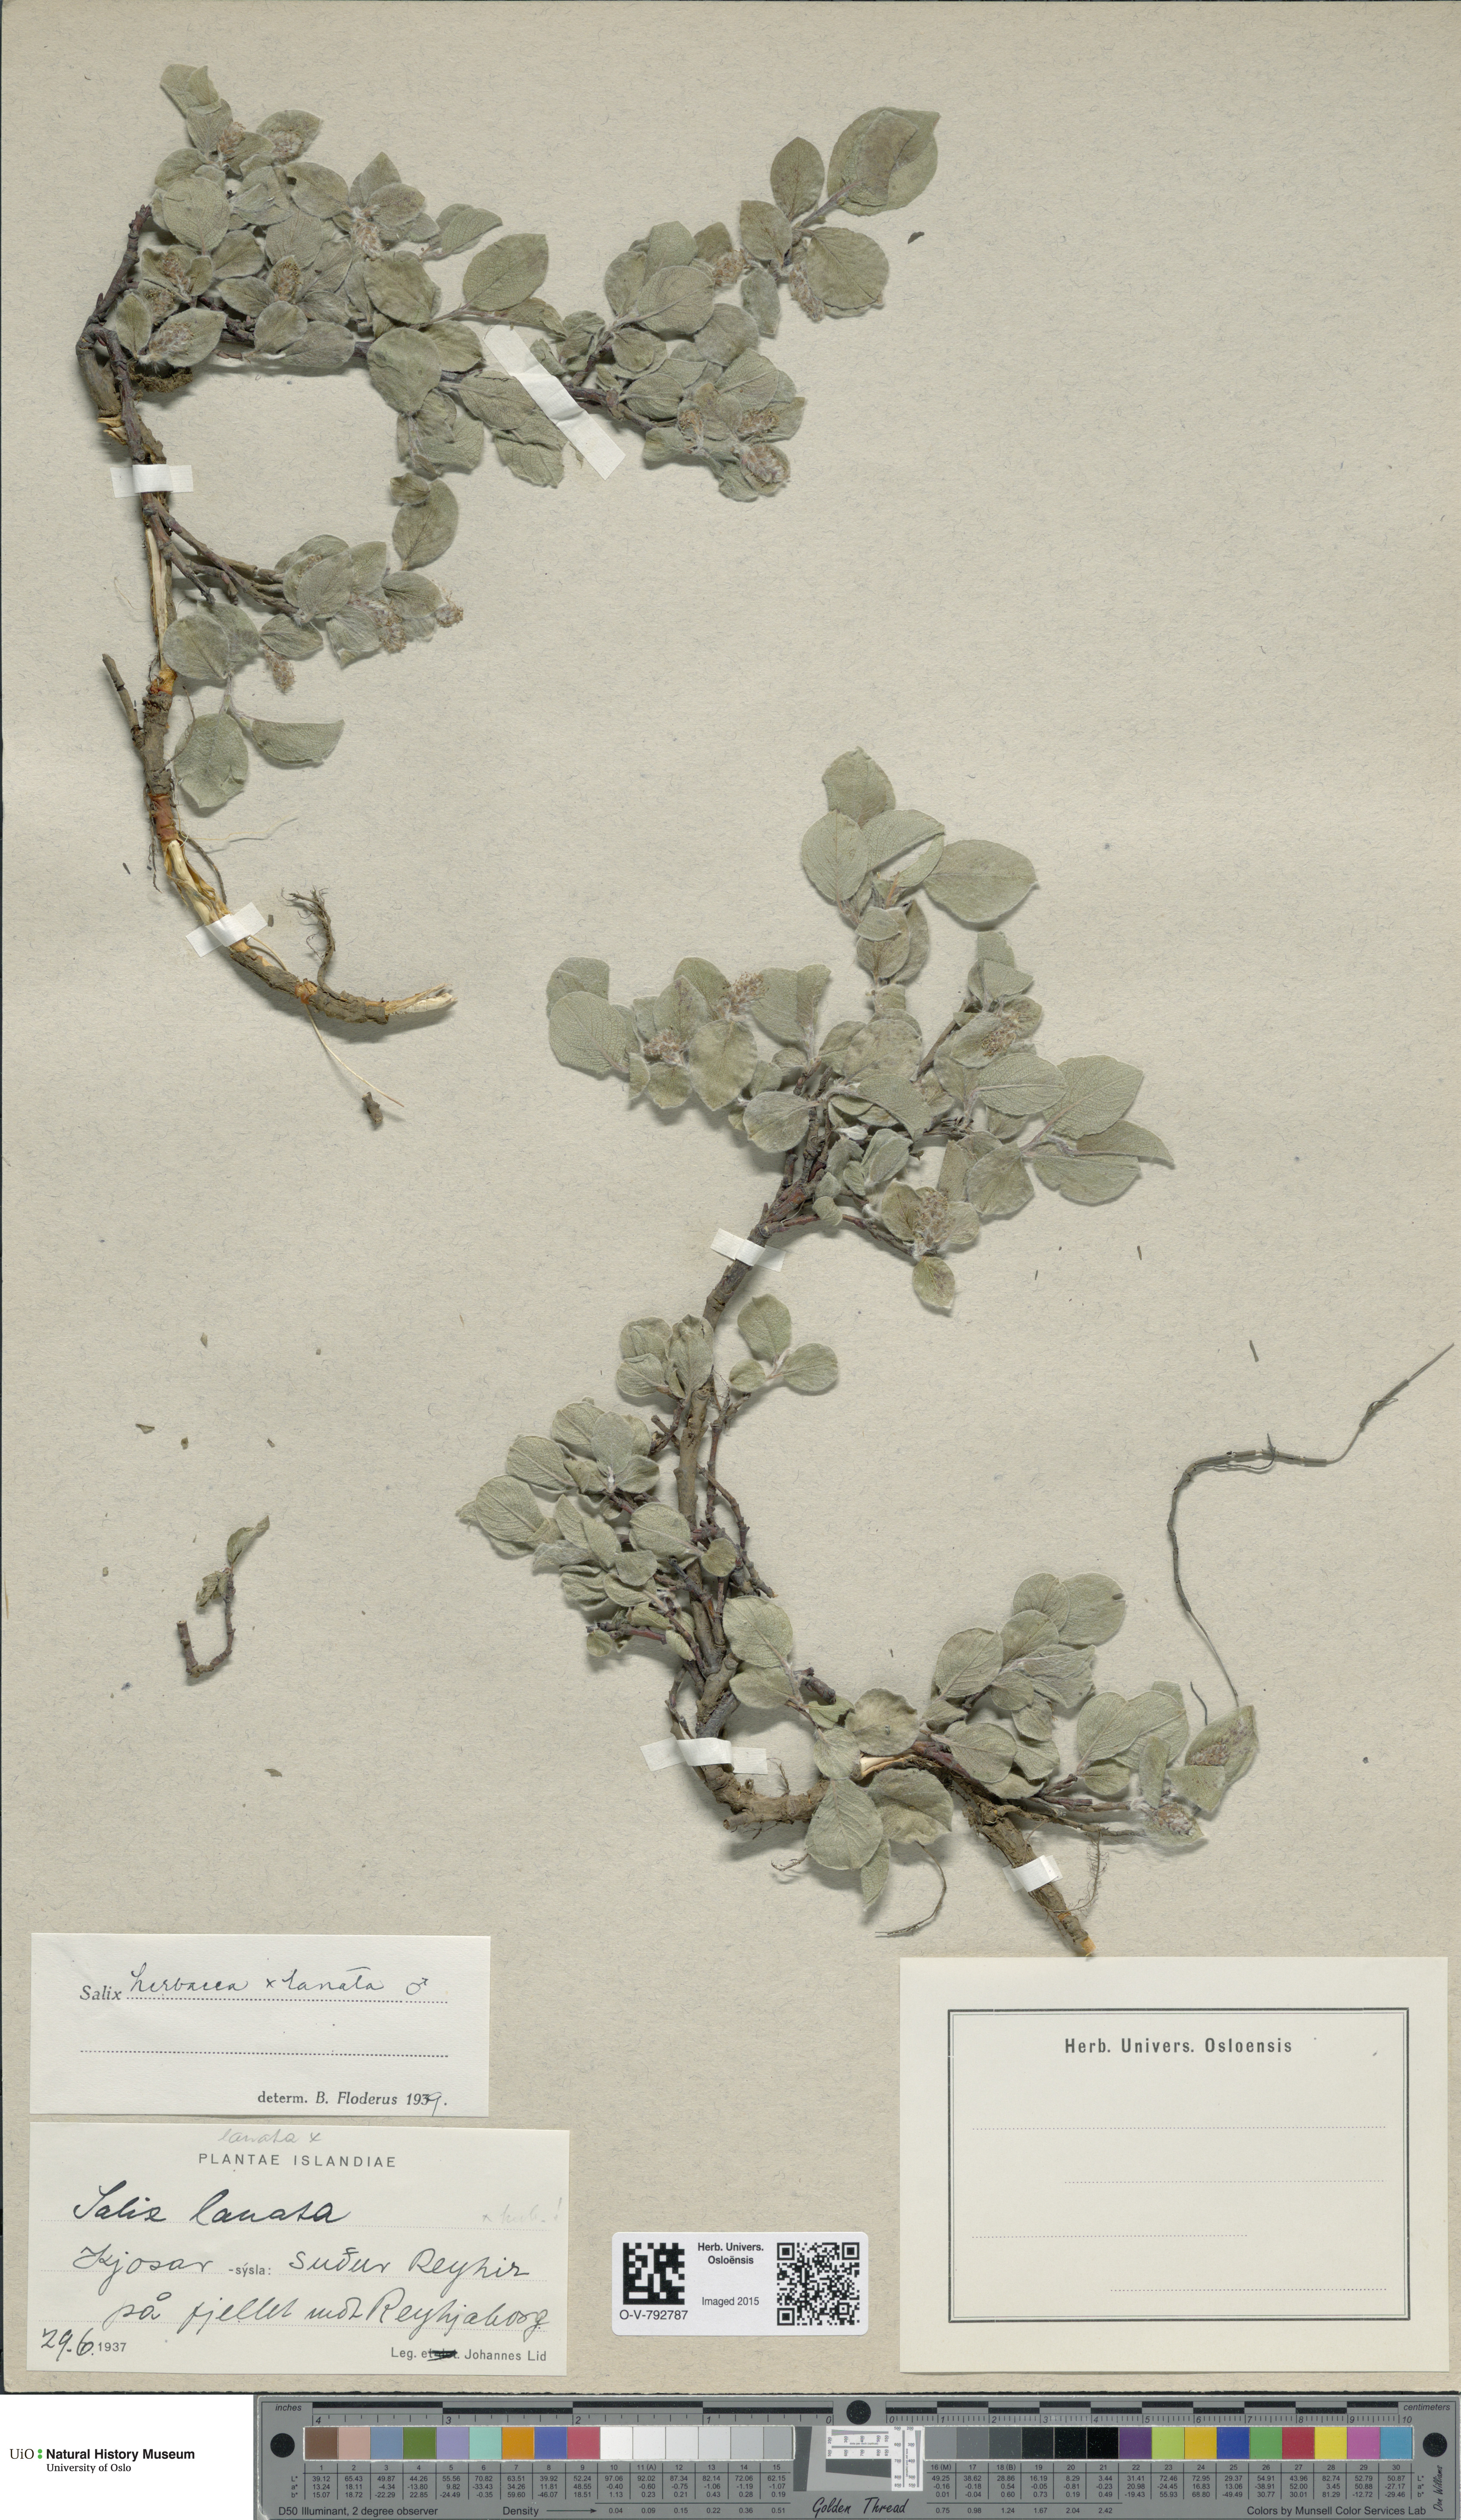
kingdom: Plantae
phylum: Tracheophyta
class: Magnoliopsida
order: Malpighiales
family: Salicaceae
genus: Salix
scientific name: Salix
